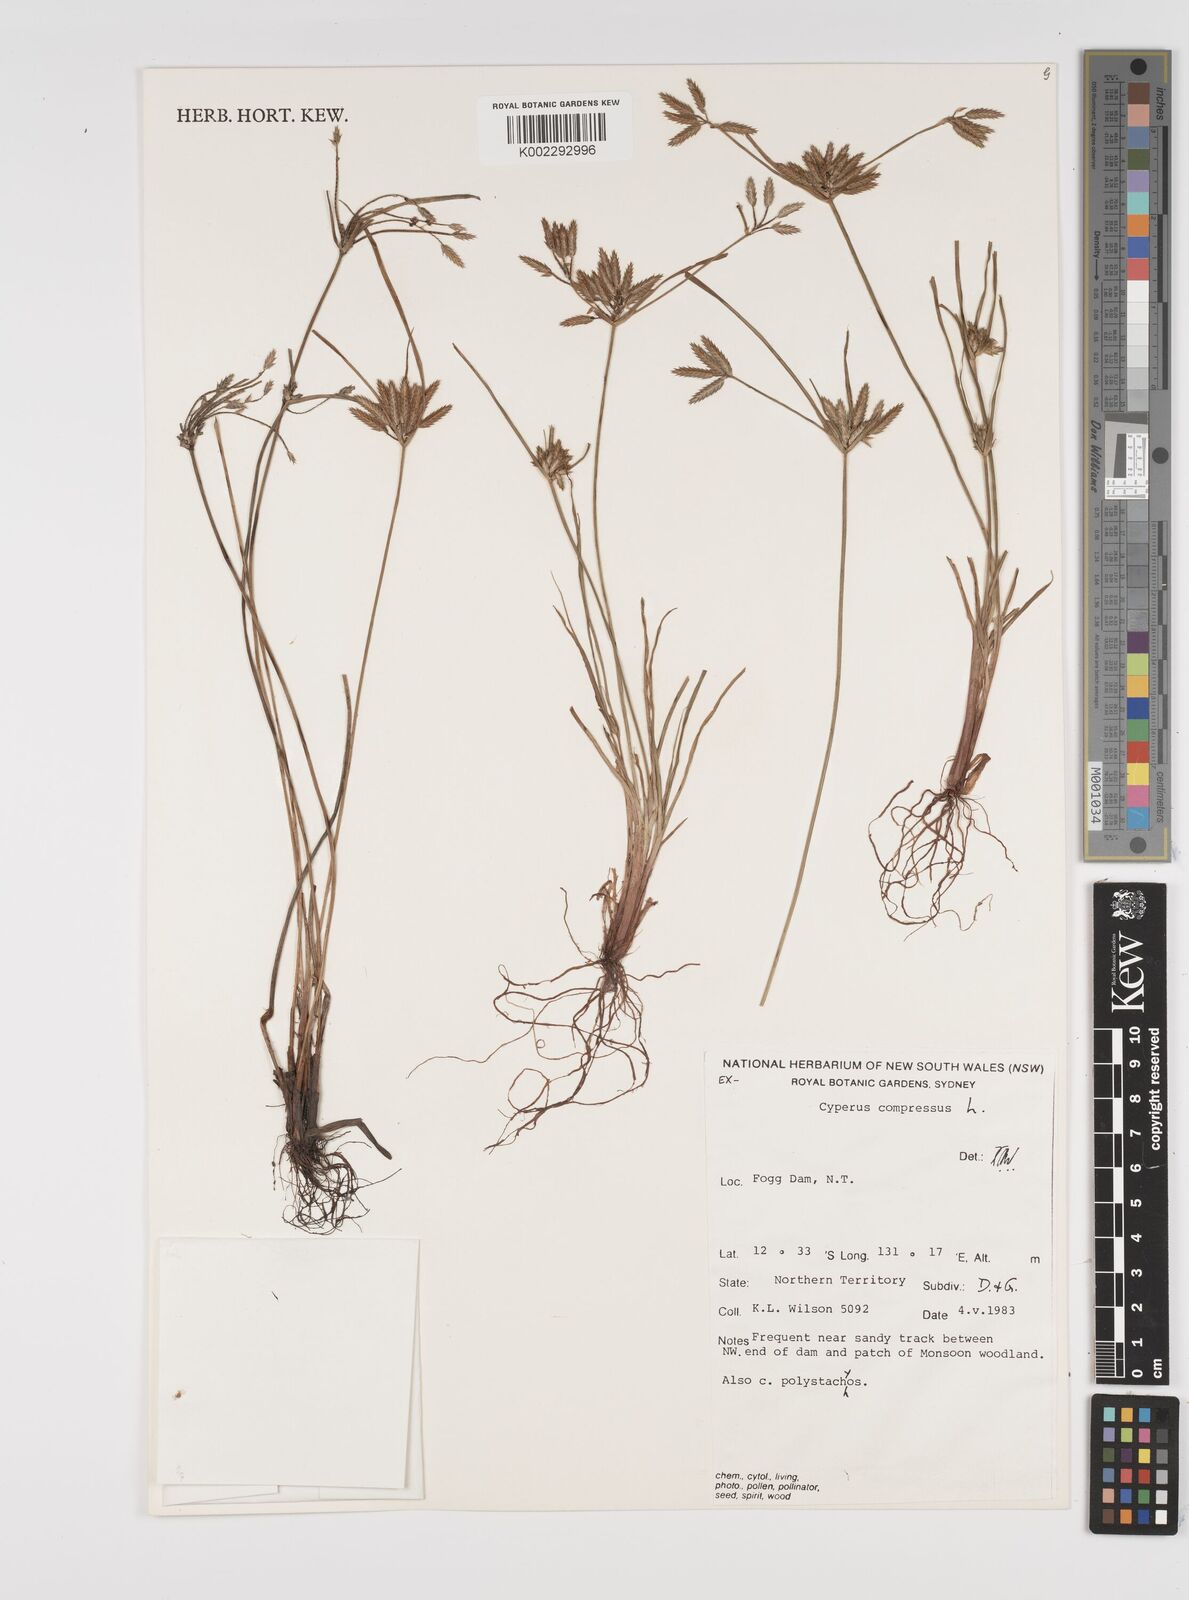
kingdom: Plantae
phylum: Tracheophyta
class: Liliopsida
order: Poales
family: Cyperaceae
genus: Cyperus
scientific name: Cyperus compressus
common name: Poorland flatsedge
